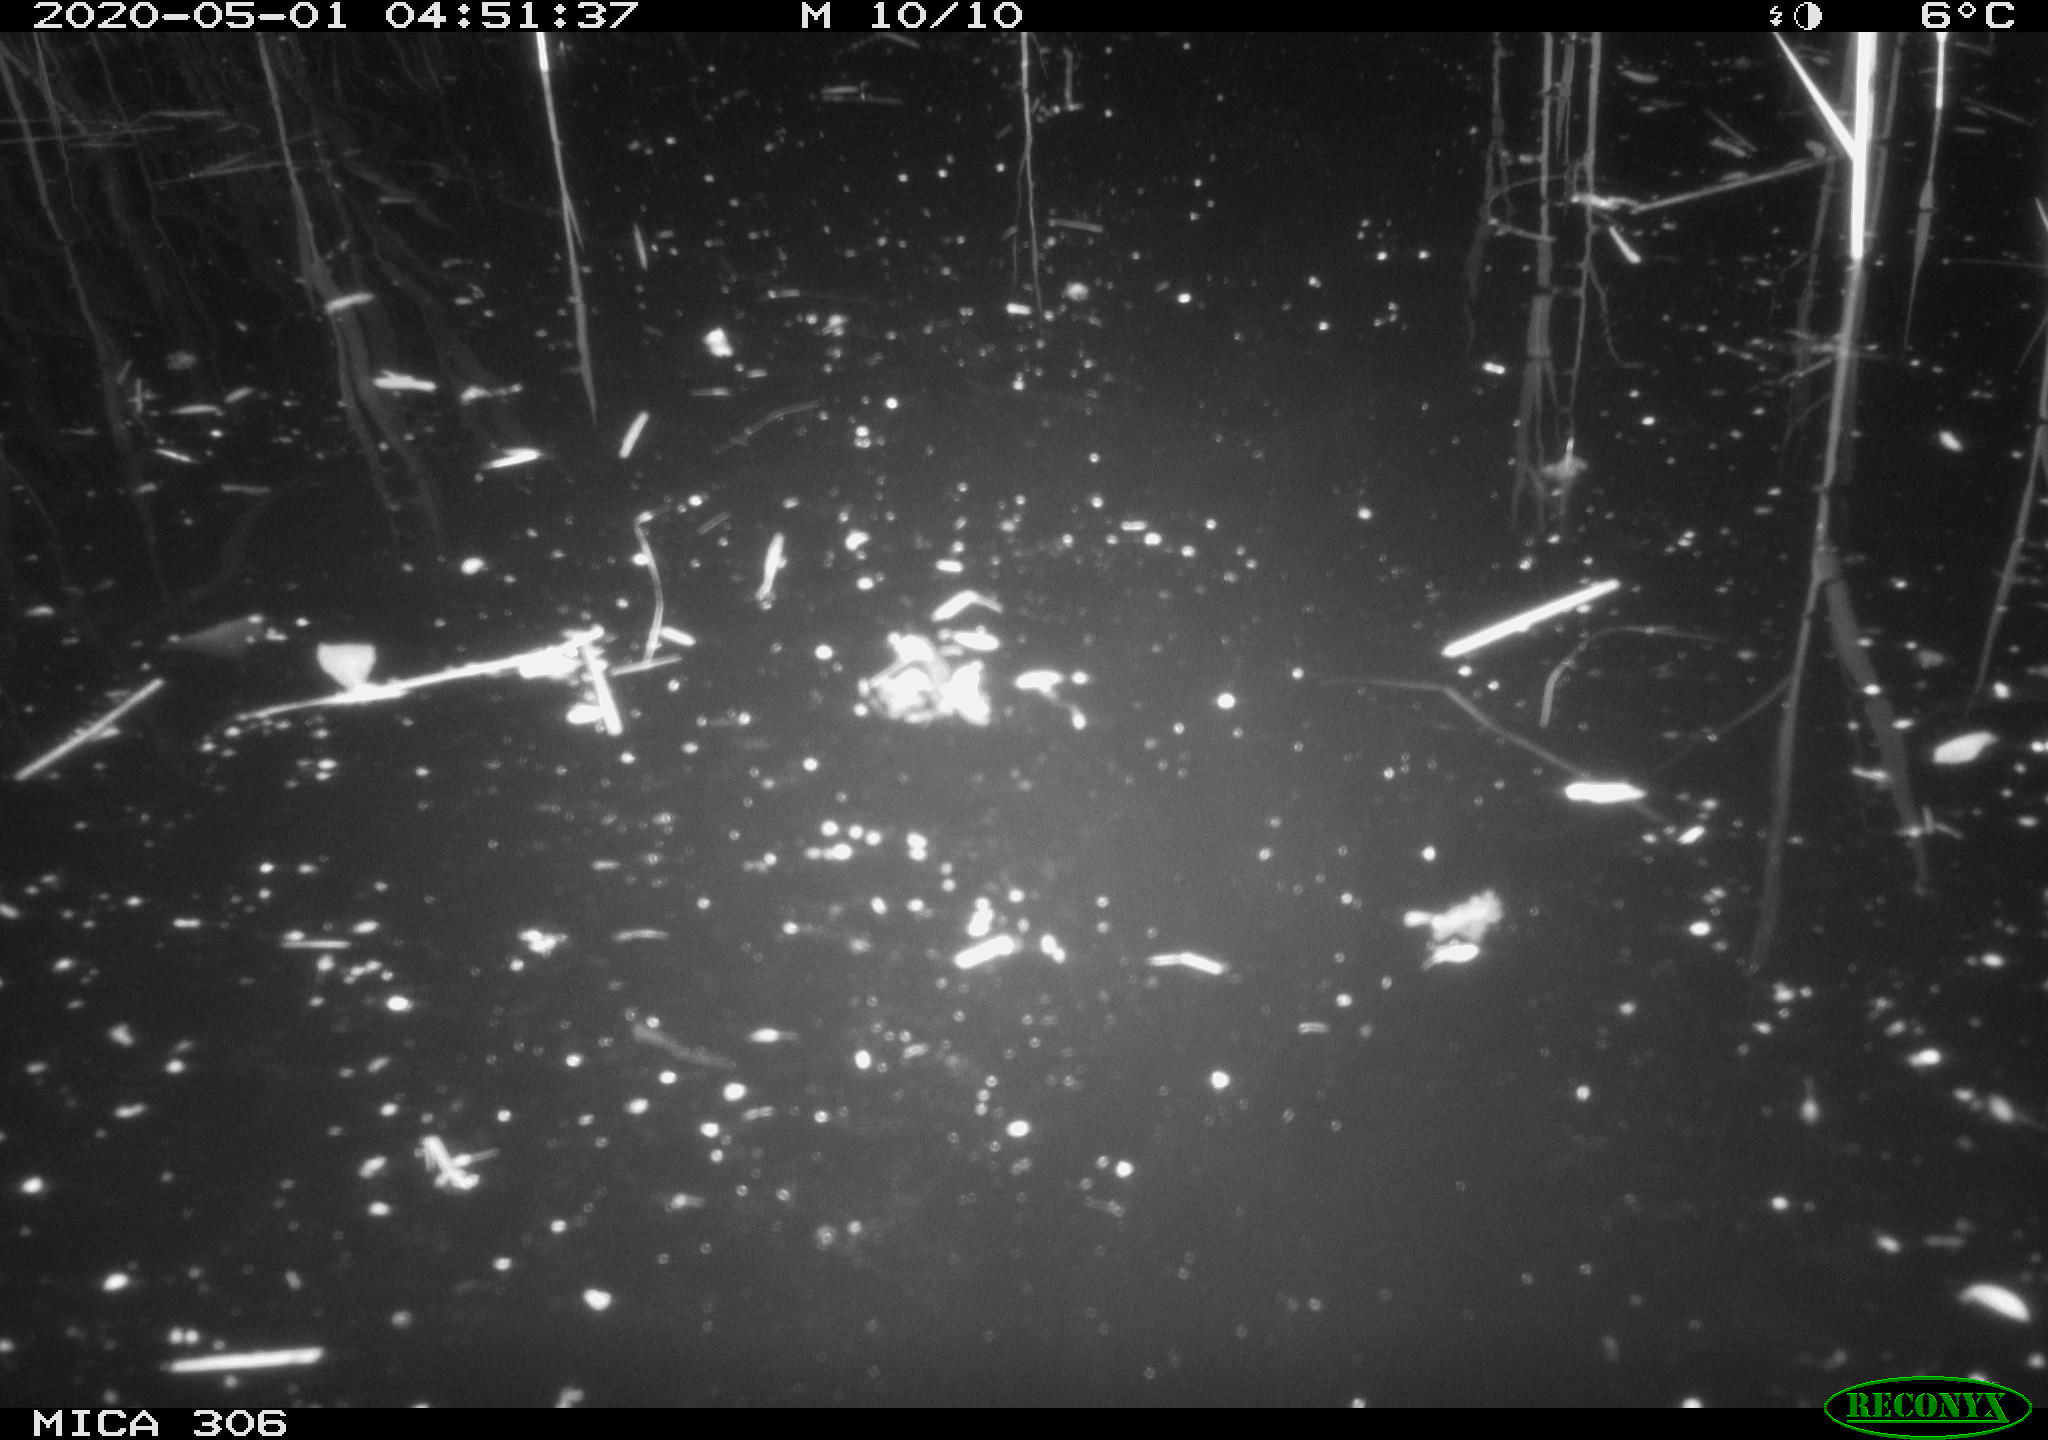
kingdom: Animalia
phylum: Chordata
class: Mammalia
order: Rodentia
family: Cricetidae
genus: Ondatra
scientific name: Ondatra zibethicus
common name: Muskrat
